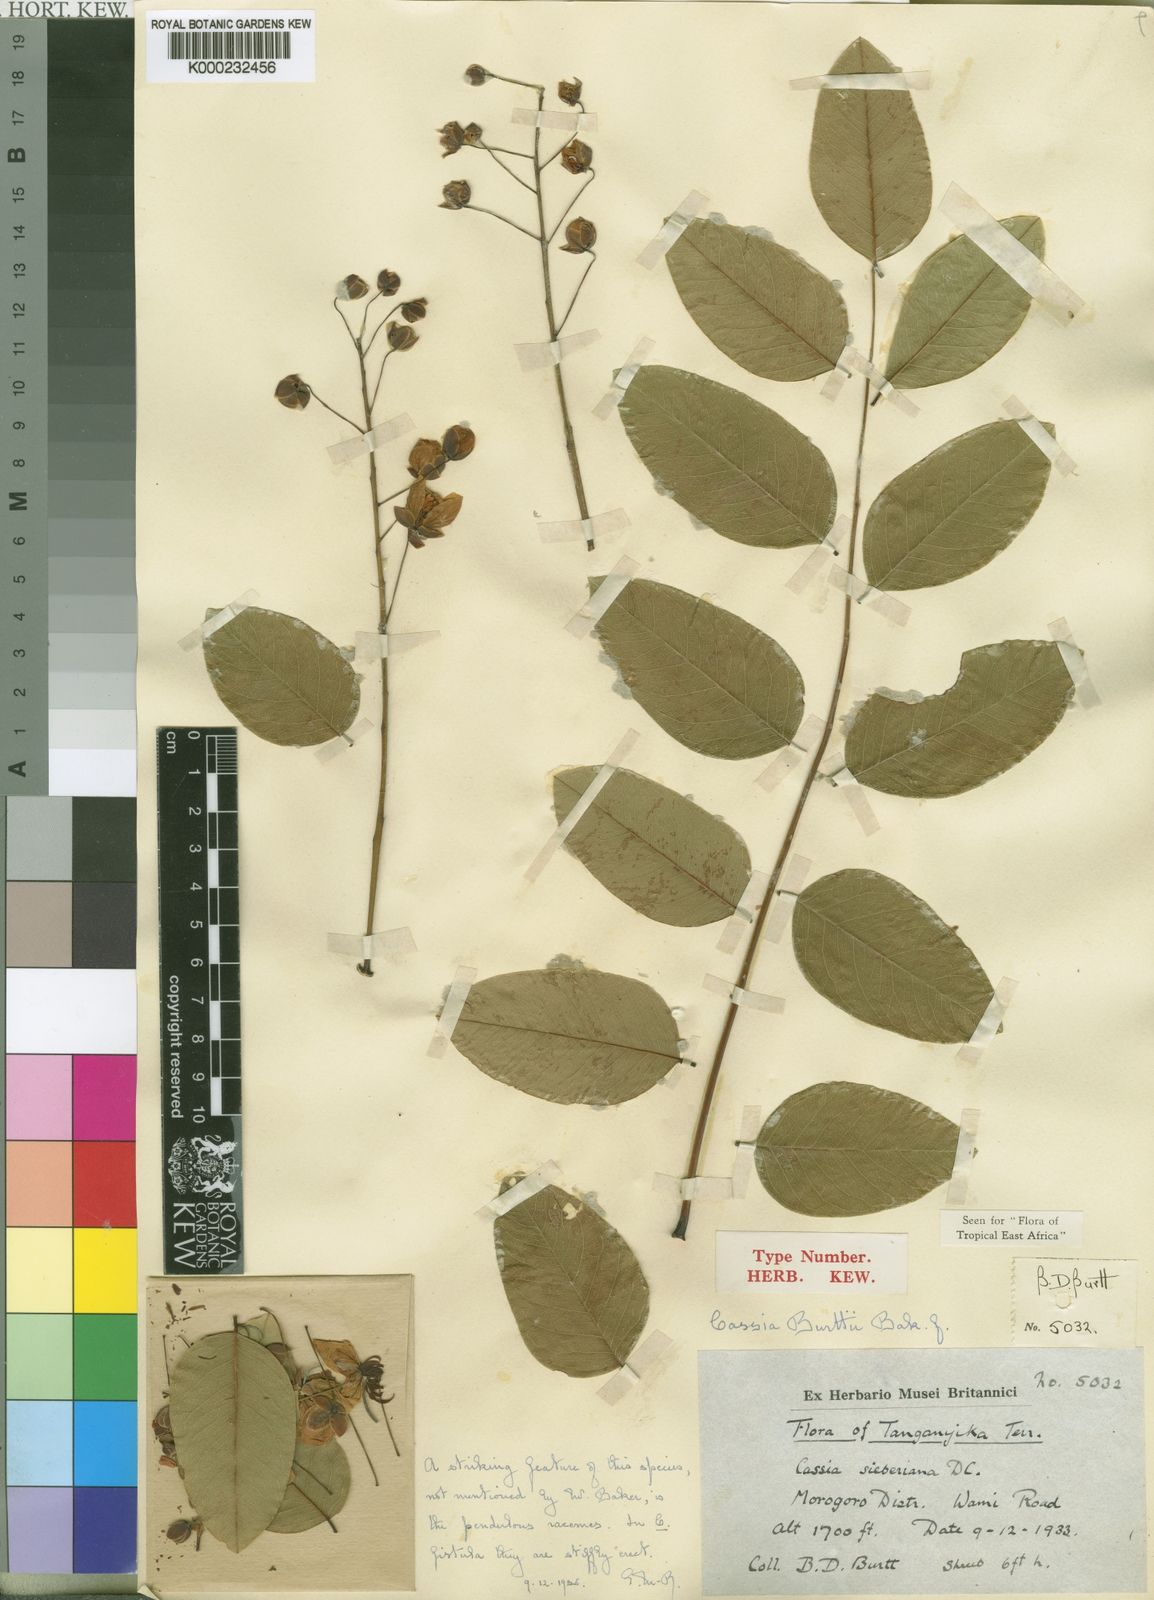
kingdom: Plantae
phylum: Tracheophyta
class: Magnoliopsida
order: Fabales
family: Fabaceae
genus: Cassia
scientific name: Cassia burttii
